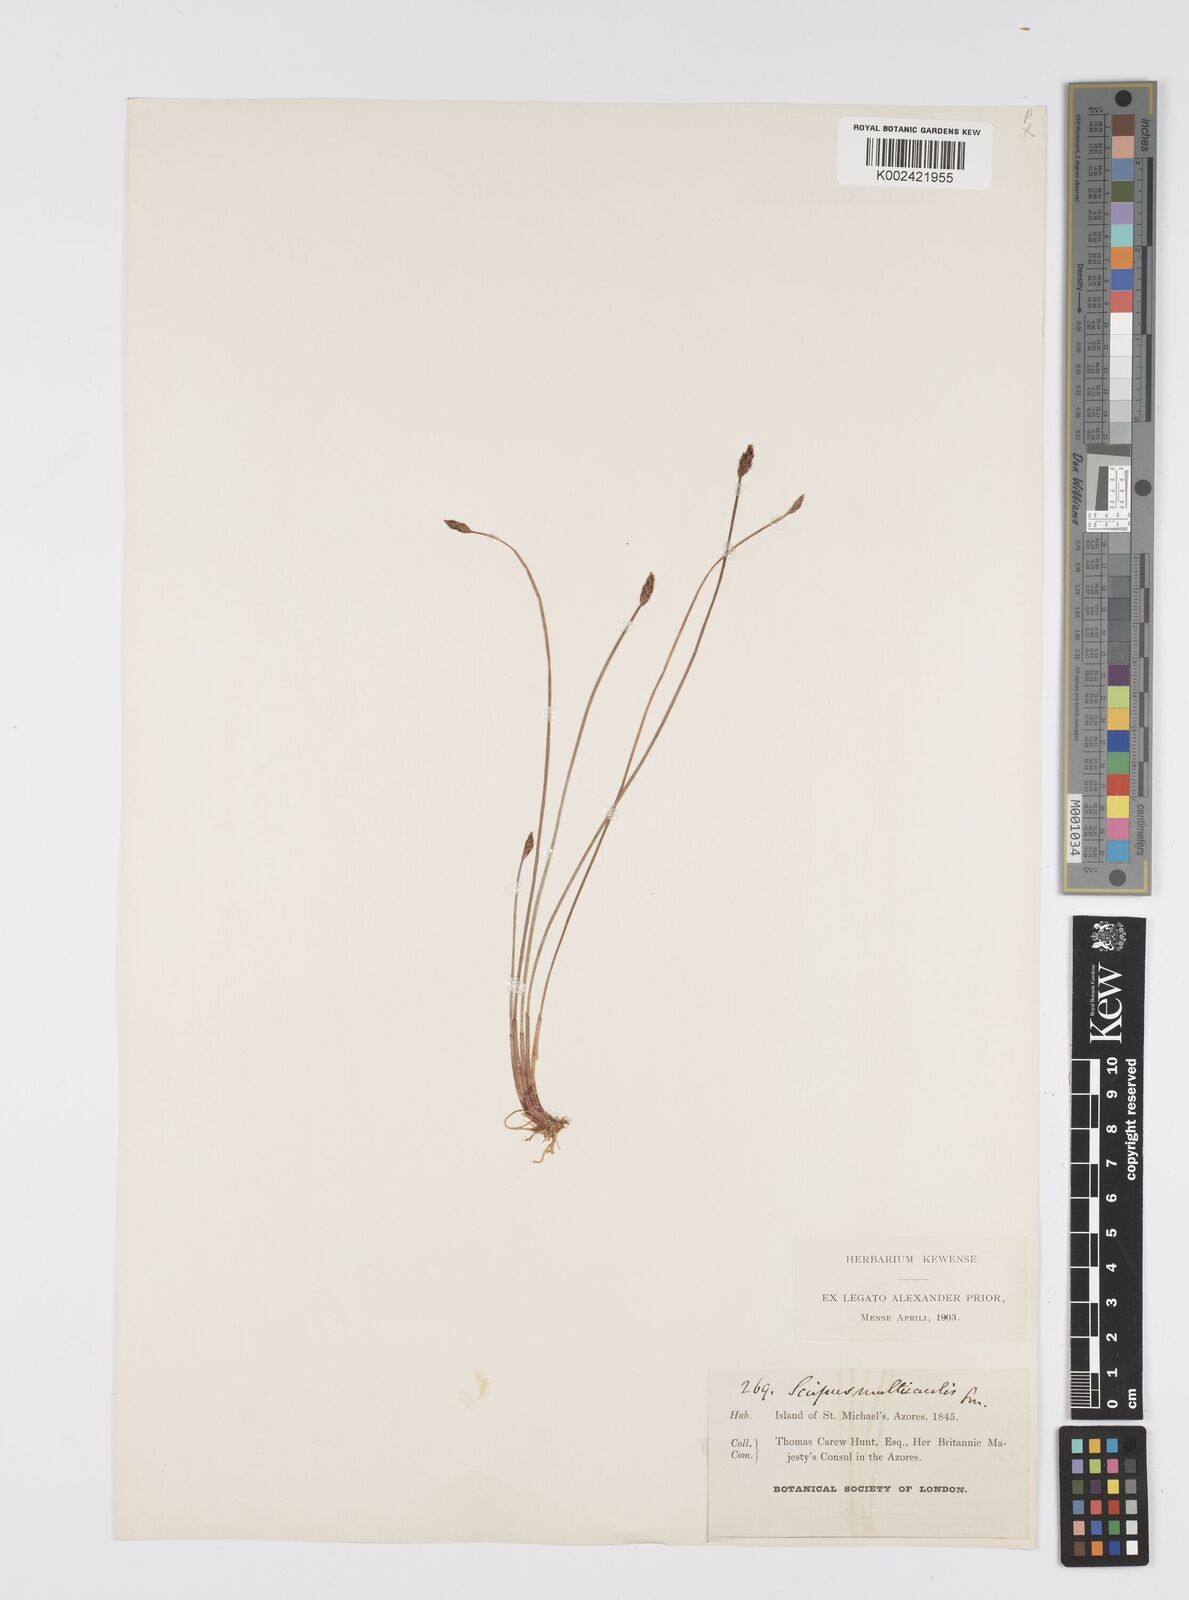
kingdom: Plantae
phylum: Tracheophyta
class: Liliopsida
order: Poales
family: Cyperaceae
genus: Eleocharis
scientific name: Eleocharis multicaulis
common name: Many-stalked spike-rush
